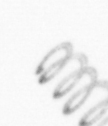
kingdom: Chromista
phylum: Ochrophyta
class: Bacillariophyceae
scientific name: Bacillariophyceae
